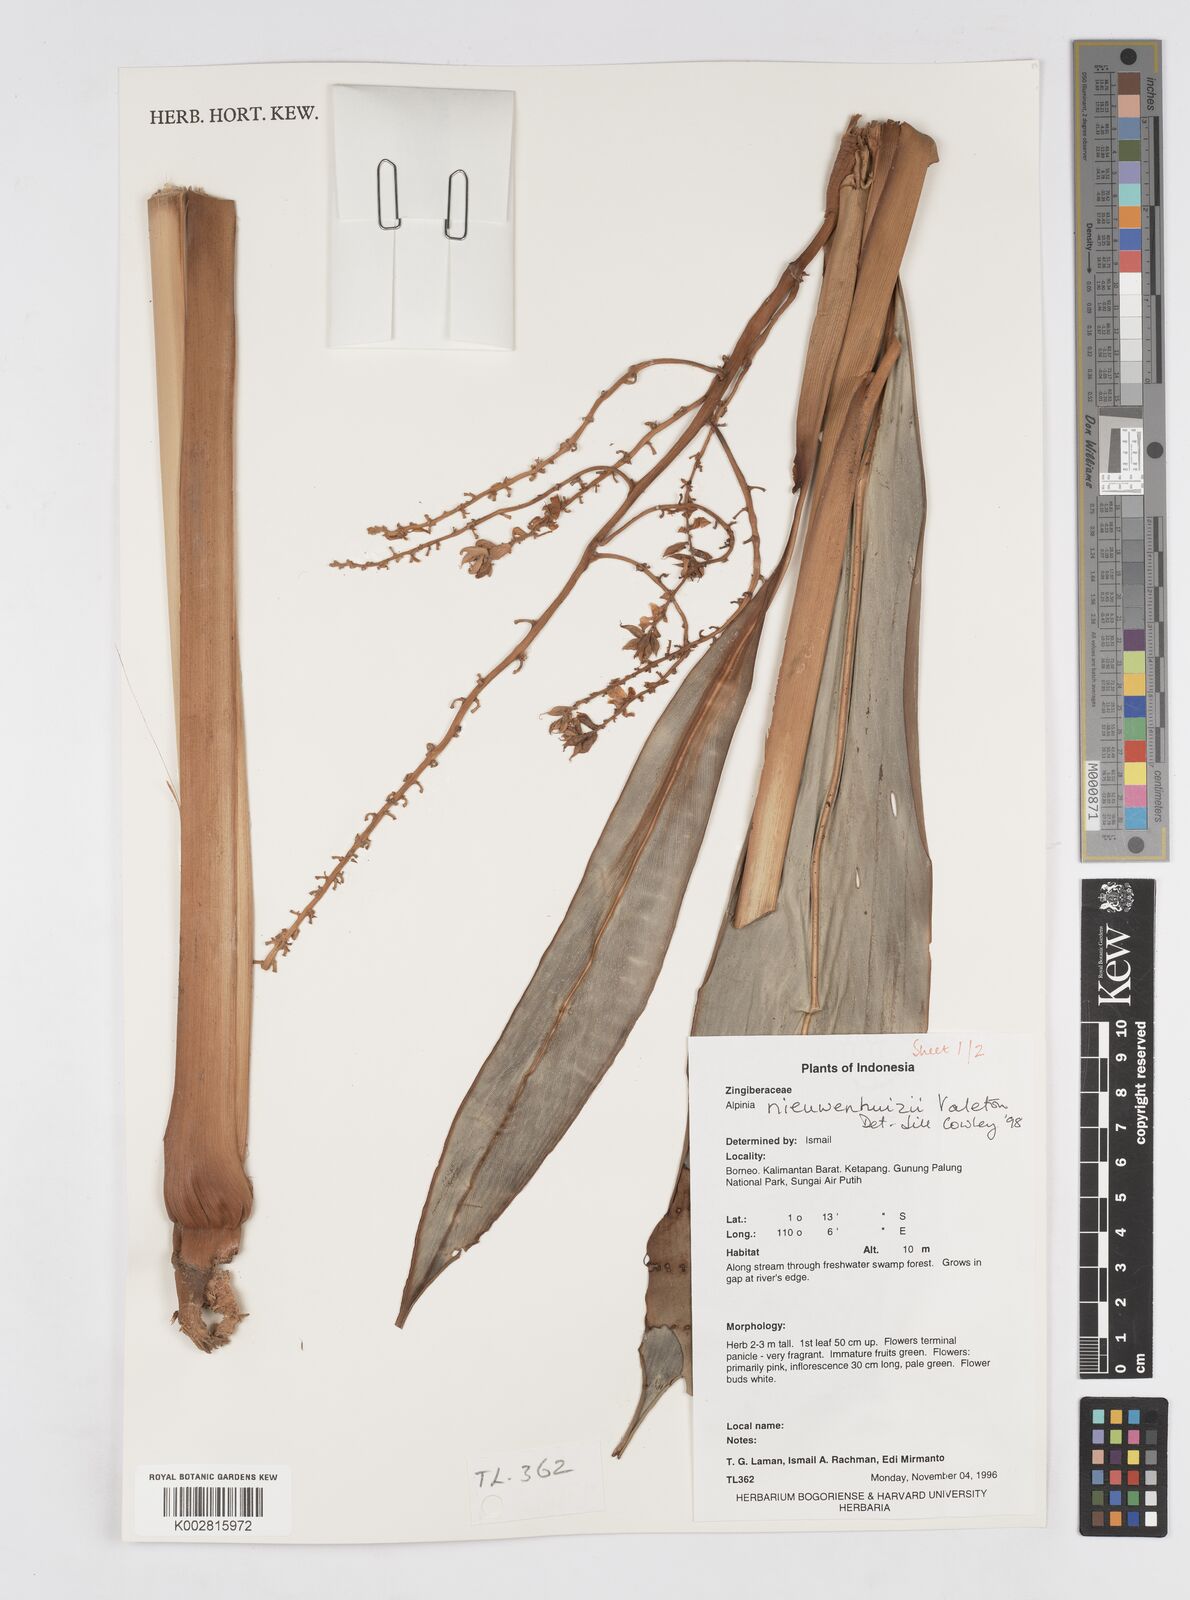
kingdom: Plantae
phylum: Tracheophyta
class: Liliopsida
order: Zingiberales
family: Zingiberaceae
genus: Alpinia
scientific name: Alpinia nieuwenhuizii
